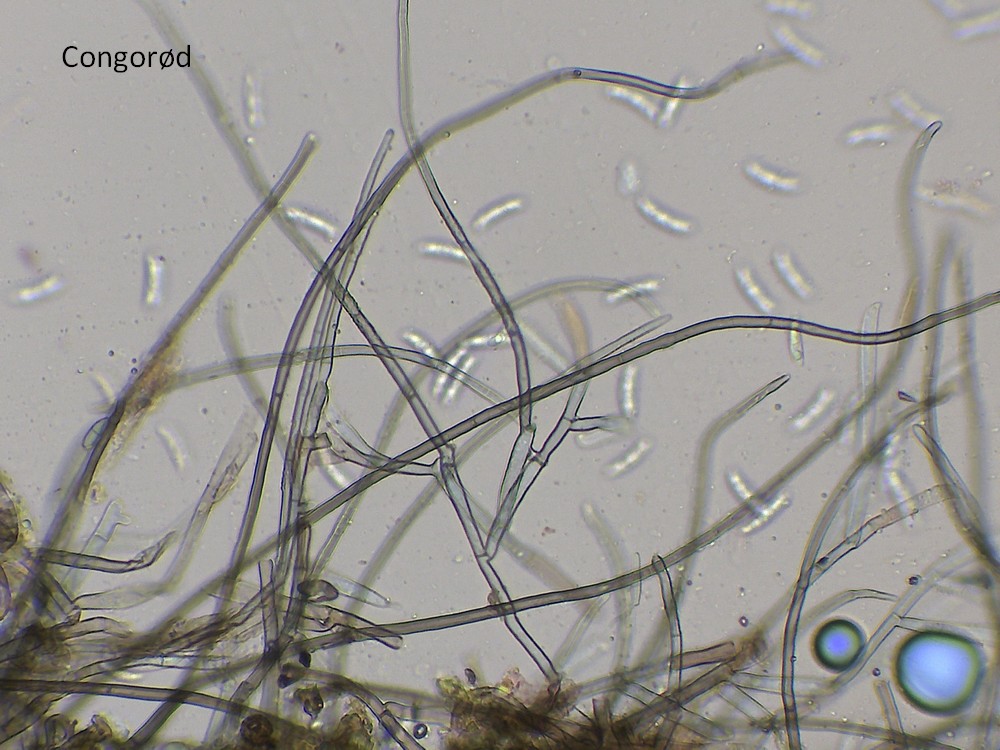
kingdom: Fungi
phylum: Ascomycota
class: Sordariomycetes
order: Chaetosphaeriales
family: Chaetosphaeriaceae
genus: Menispora
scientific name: Menispora
